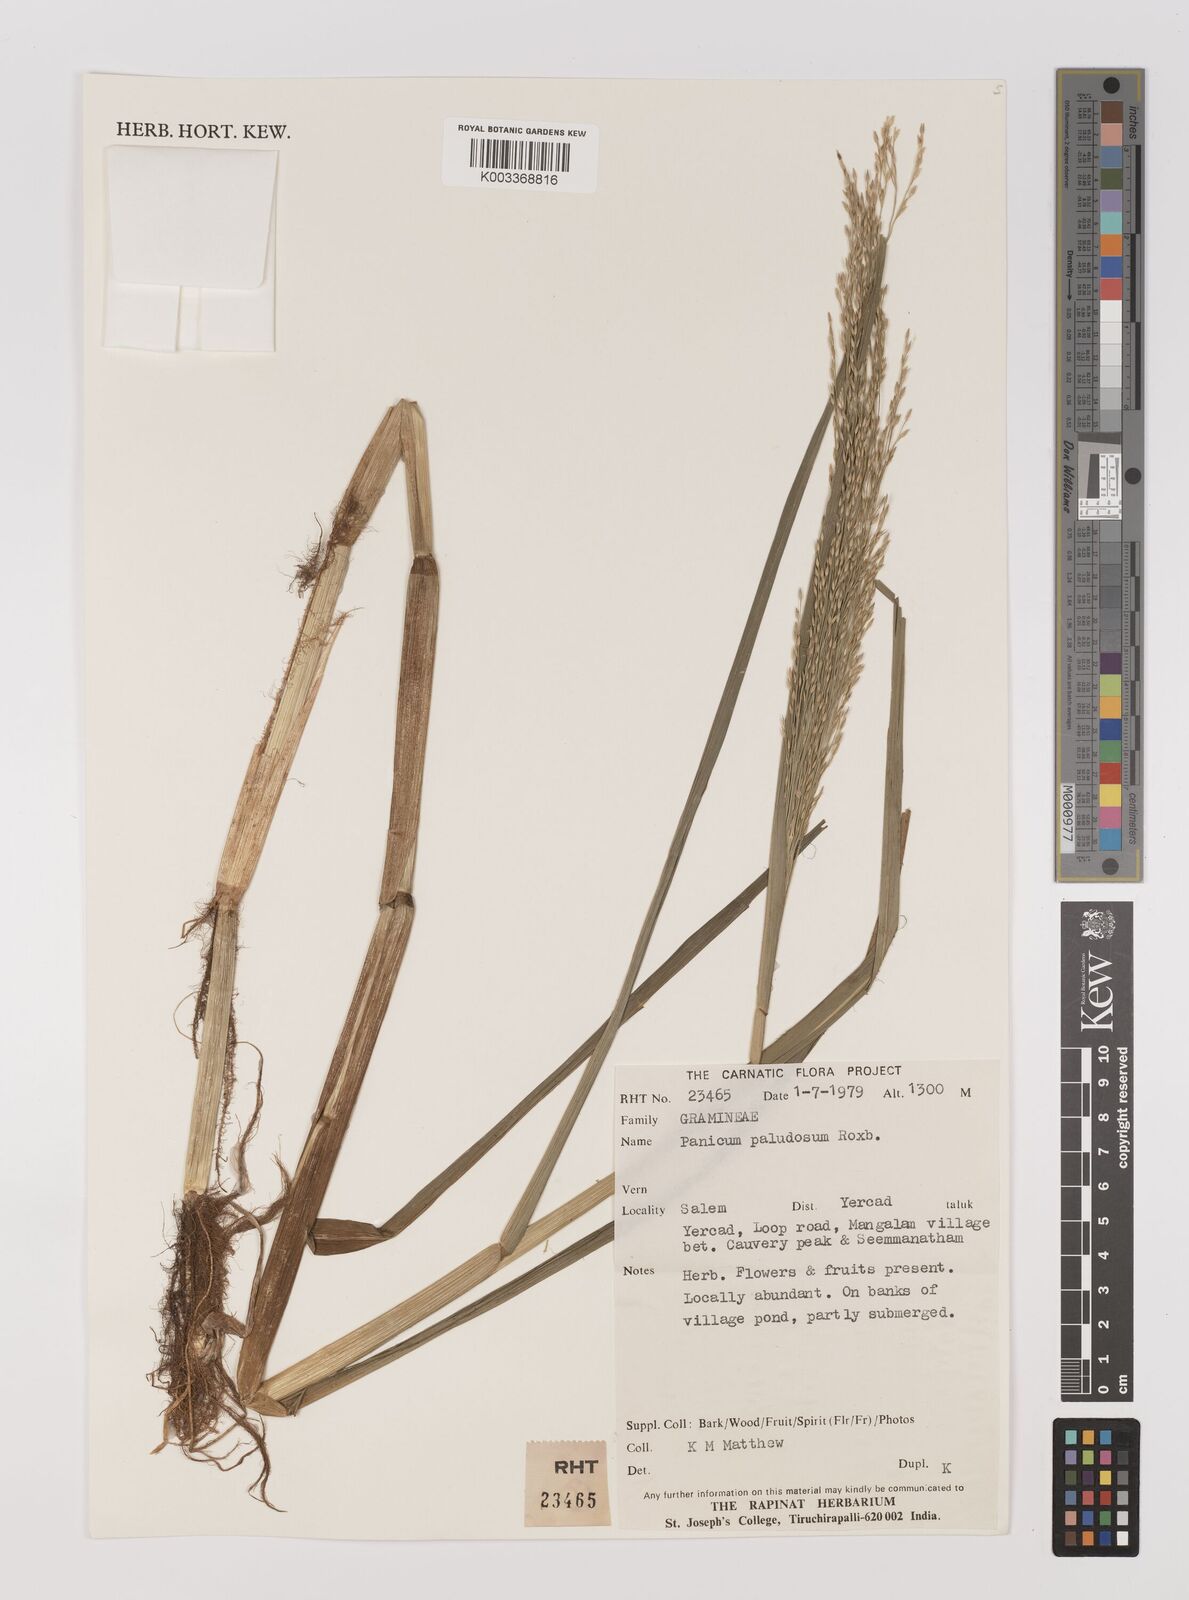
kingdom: Plantae
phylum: Tracheophyta
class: Liliopsida
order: Poales
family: Poaceae
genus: Louisiella
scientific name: Louisiella paludosa
